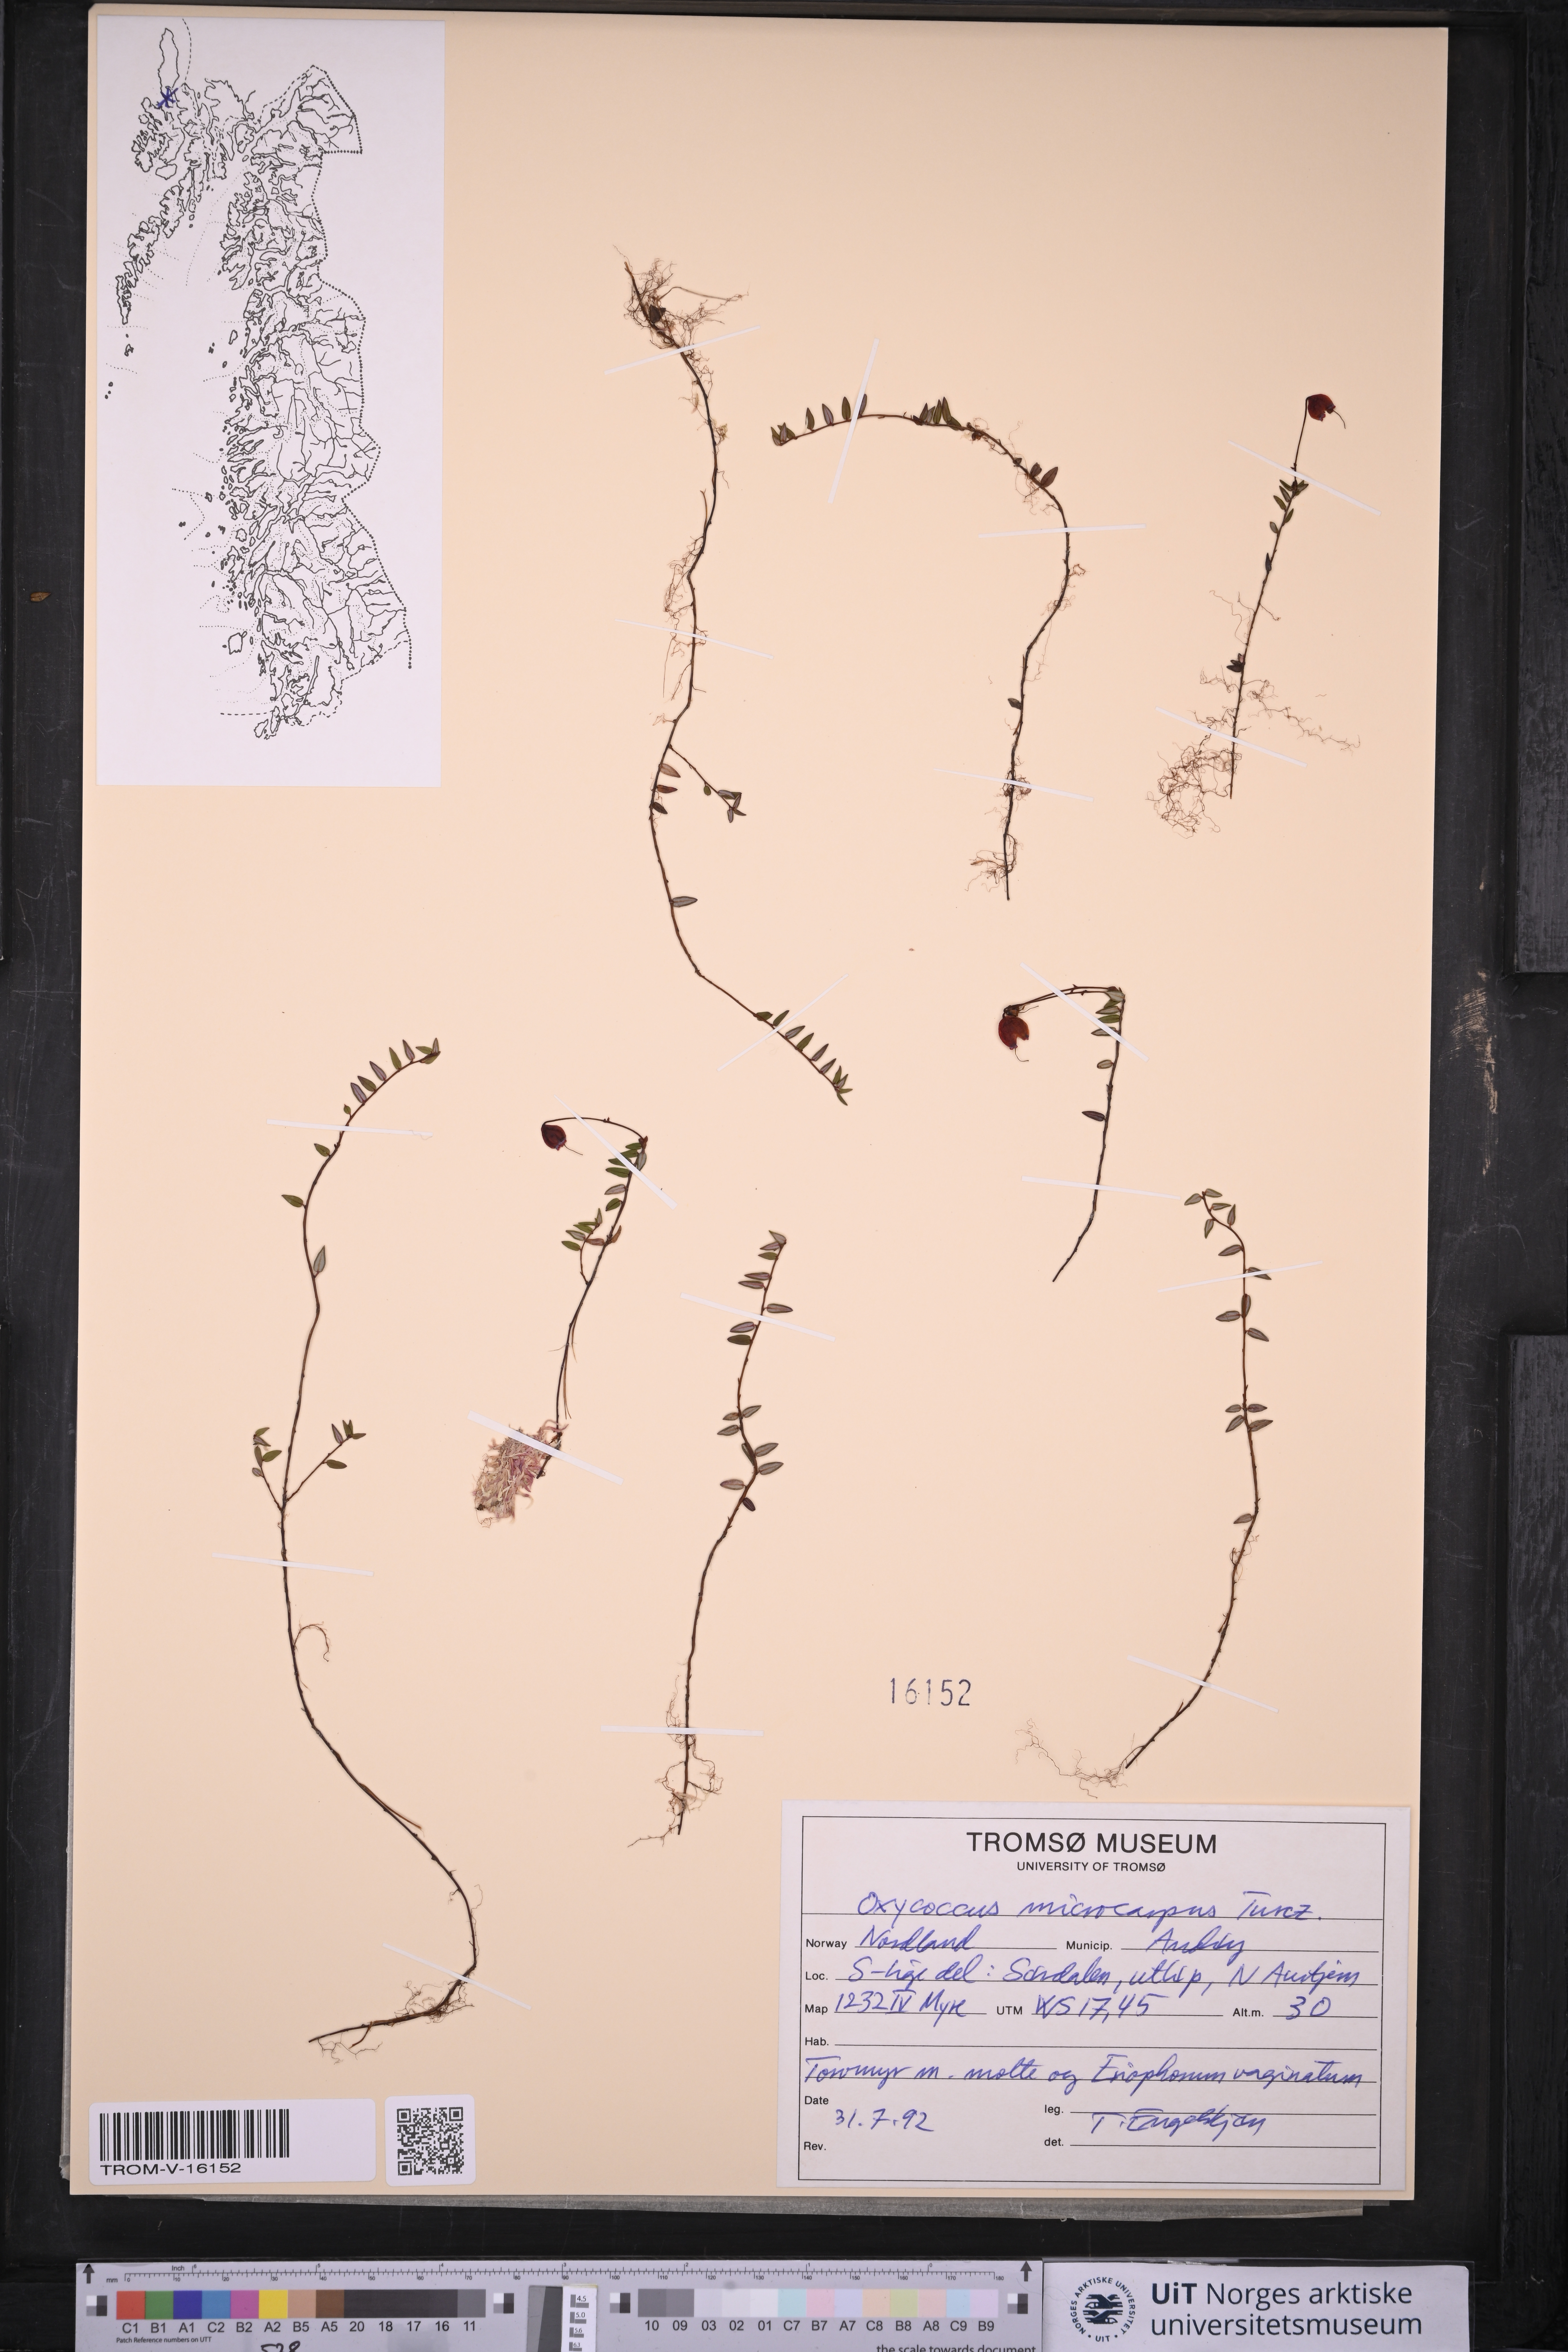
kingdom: Plantae
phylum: Tracheophyta
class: Magnoliopsida
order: Ericales
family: Ericaceae
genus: Vaccinium
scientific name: Vaccinium microcarpum
